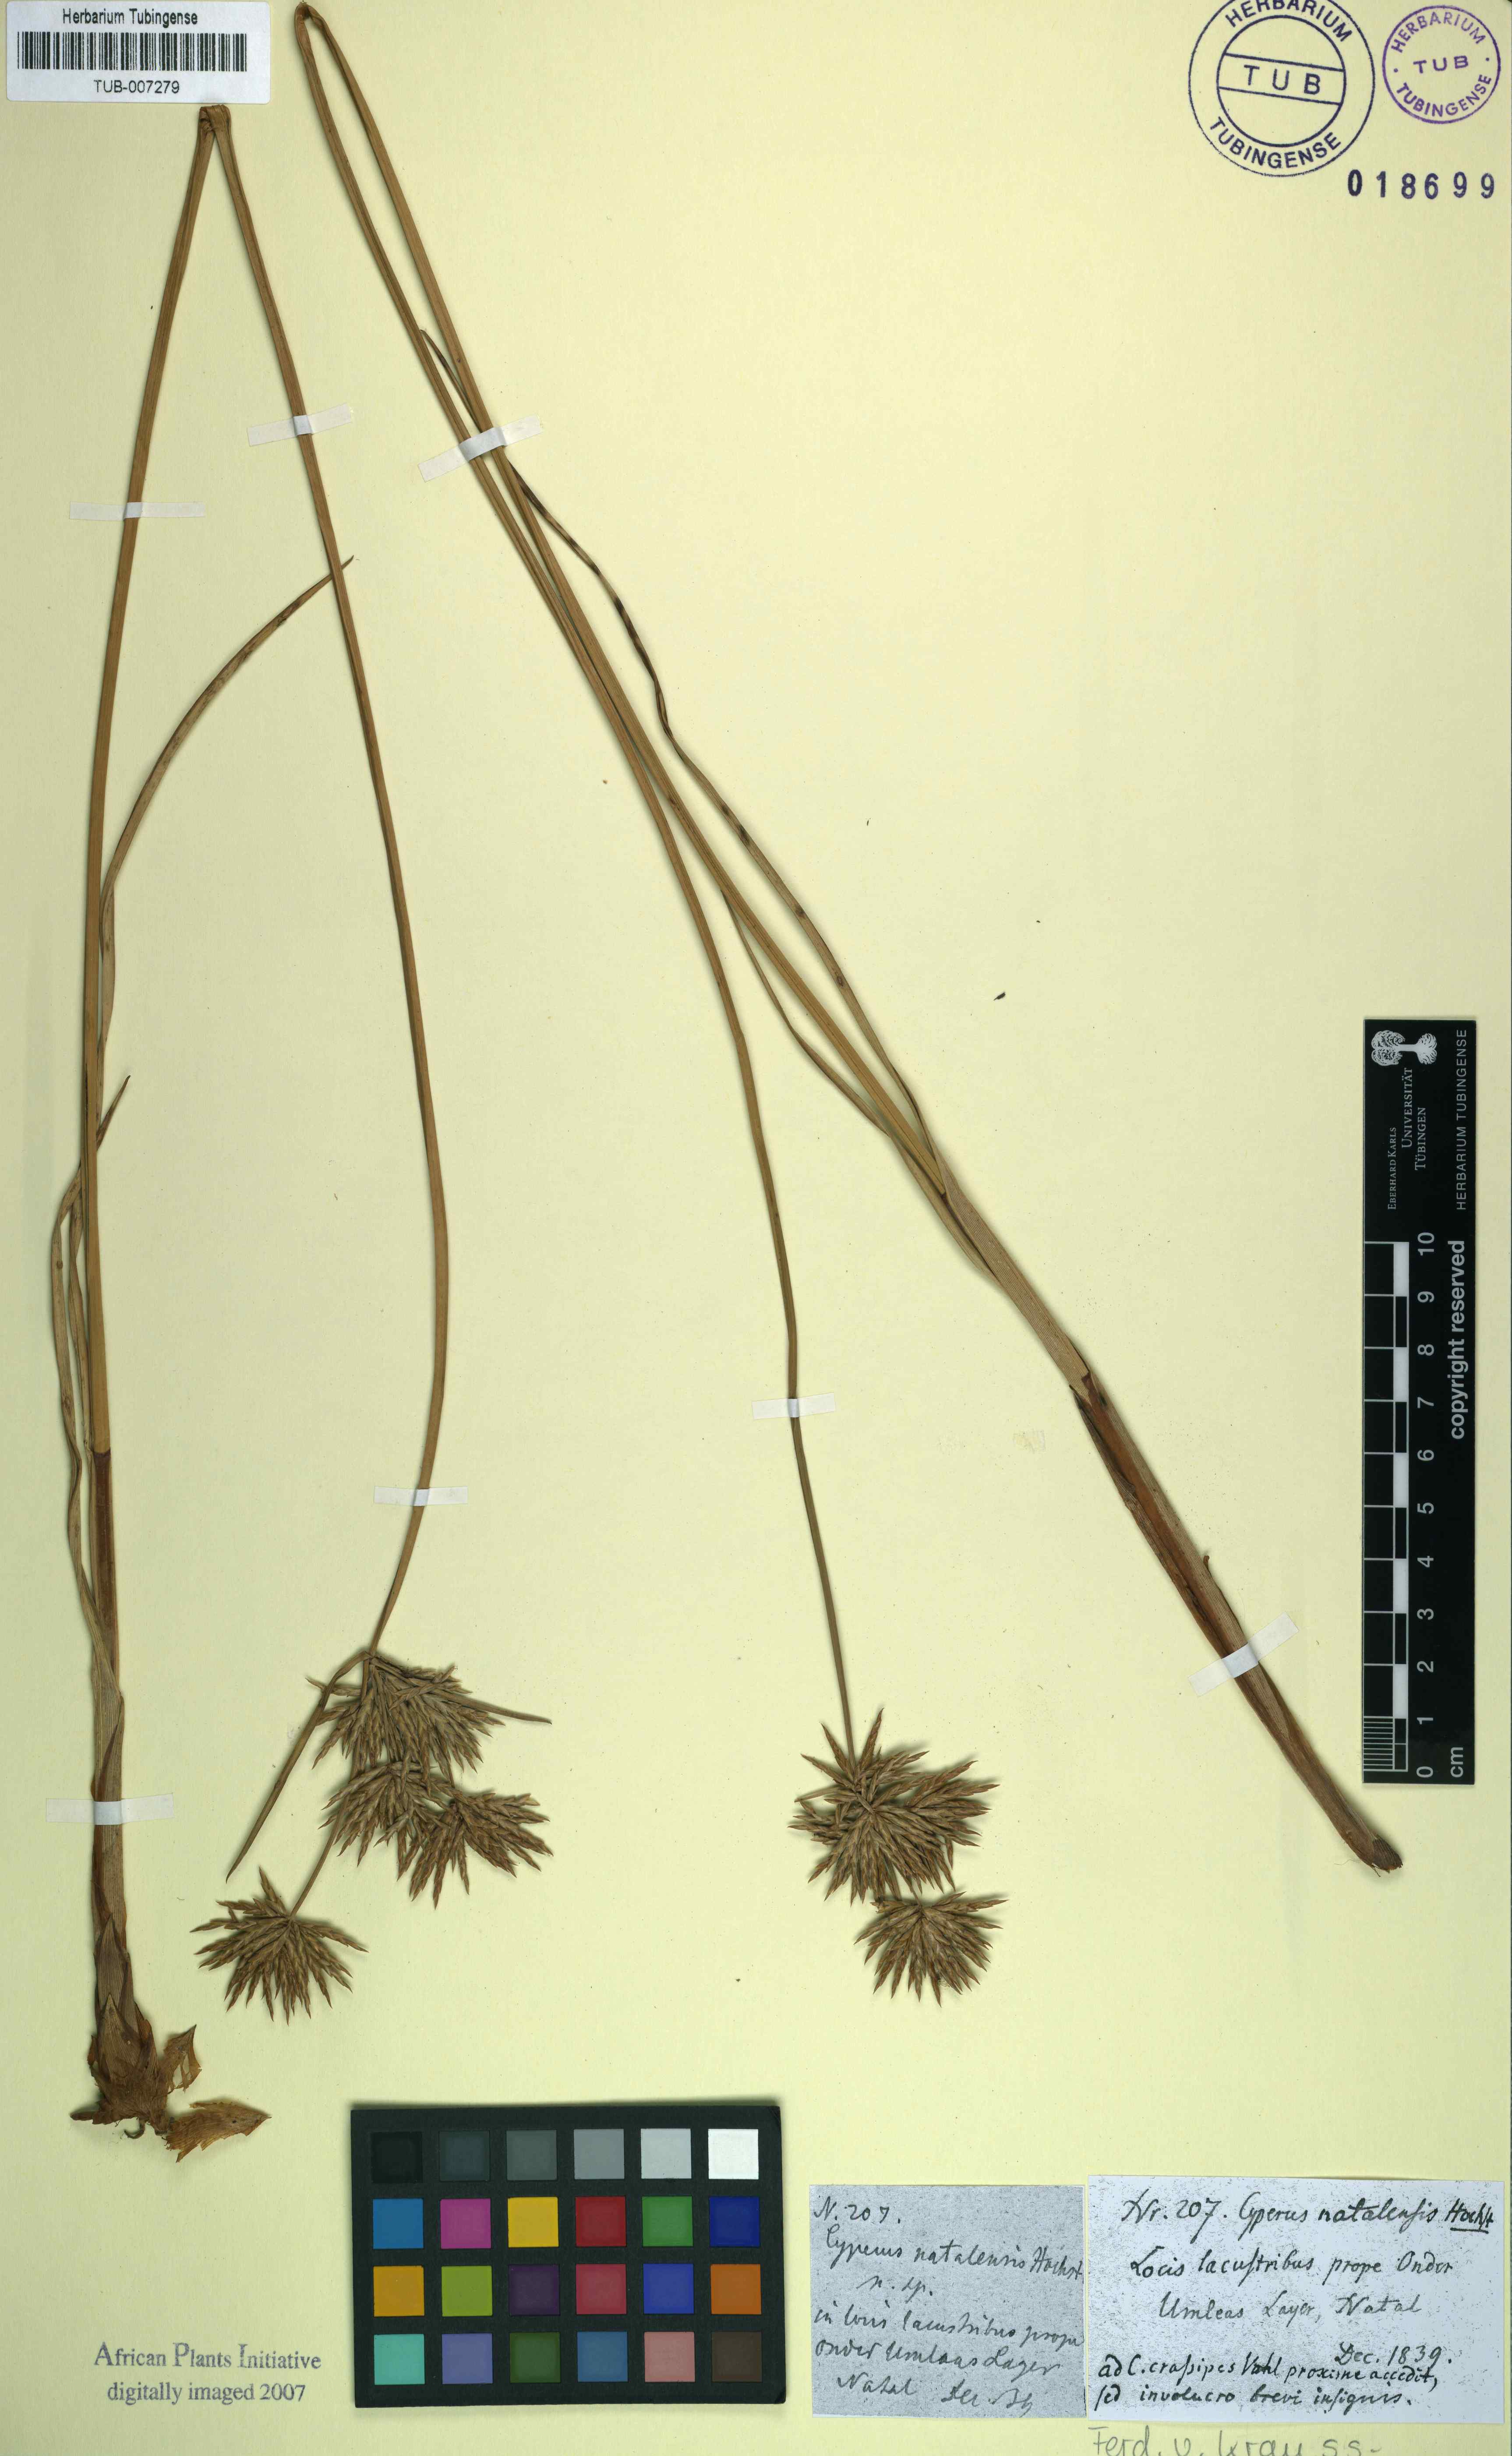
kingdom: Plantae
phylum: Tracheophyta
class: Liliopsida
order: Poales
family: Cyperaceae
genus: Cyperus
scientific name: Cyperus natalensis
